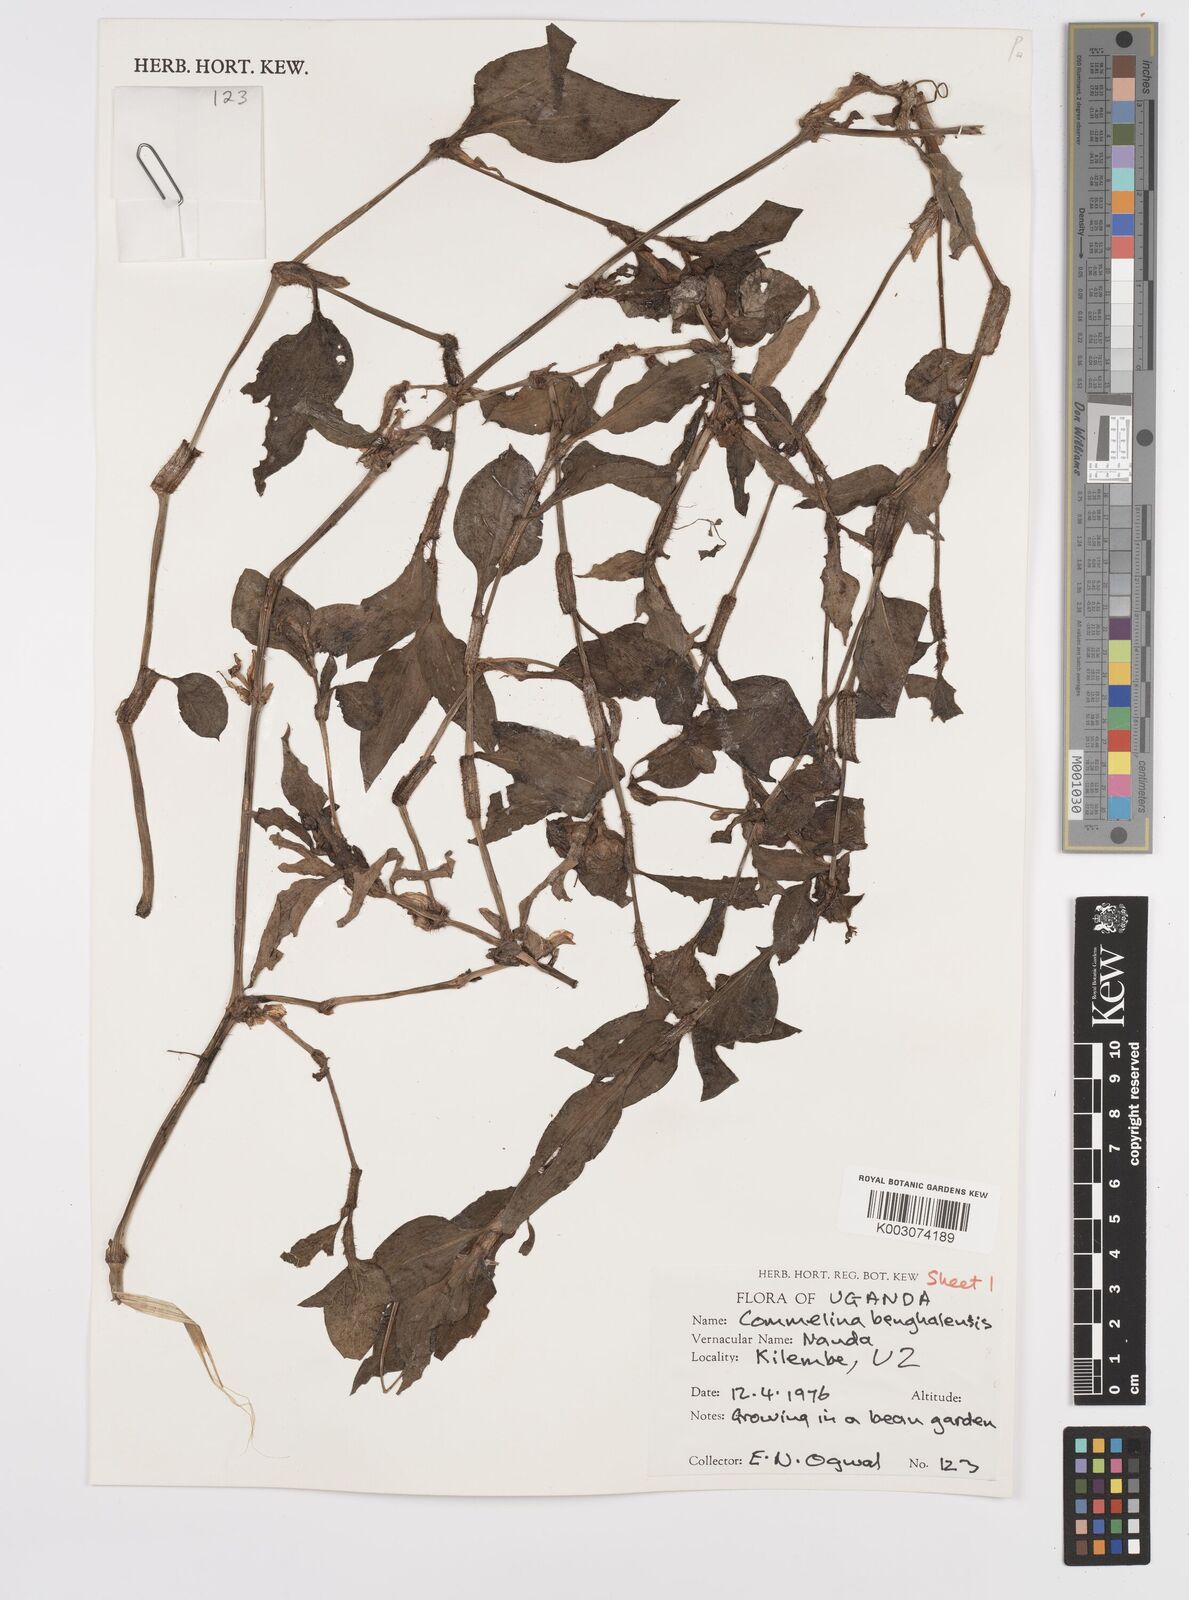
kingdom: Plantae
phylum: Tracheophyta
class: Liliopsida
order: Commelinales
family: Commelinaceae
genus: Commelina
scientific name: Commelina benghalensis
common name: Jio
